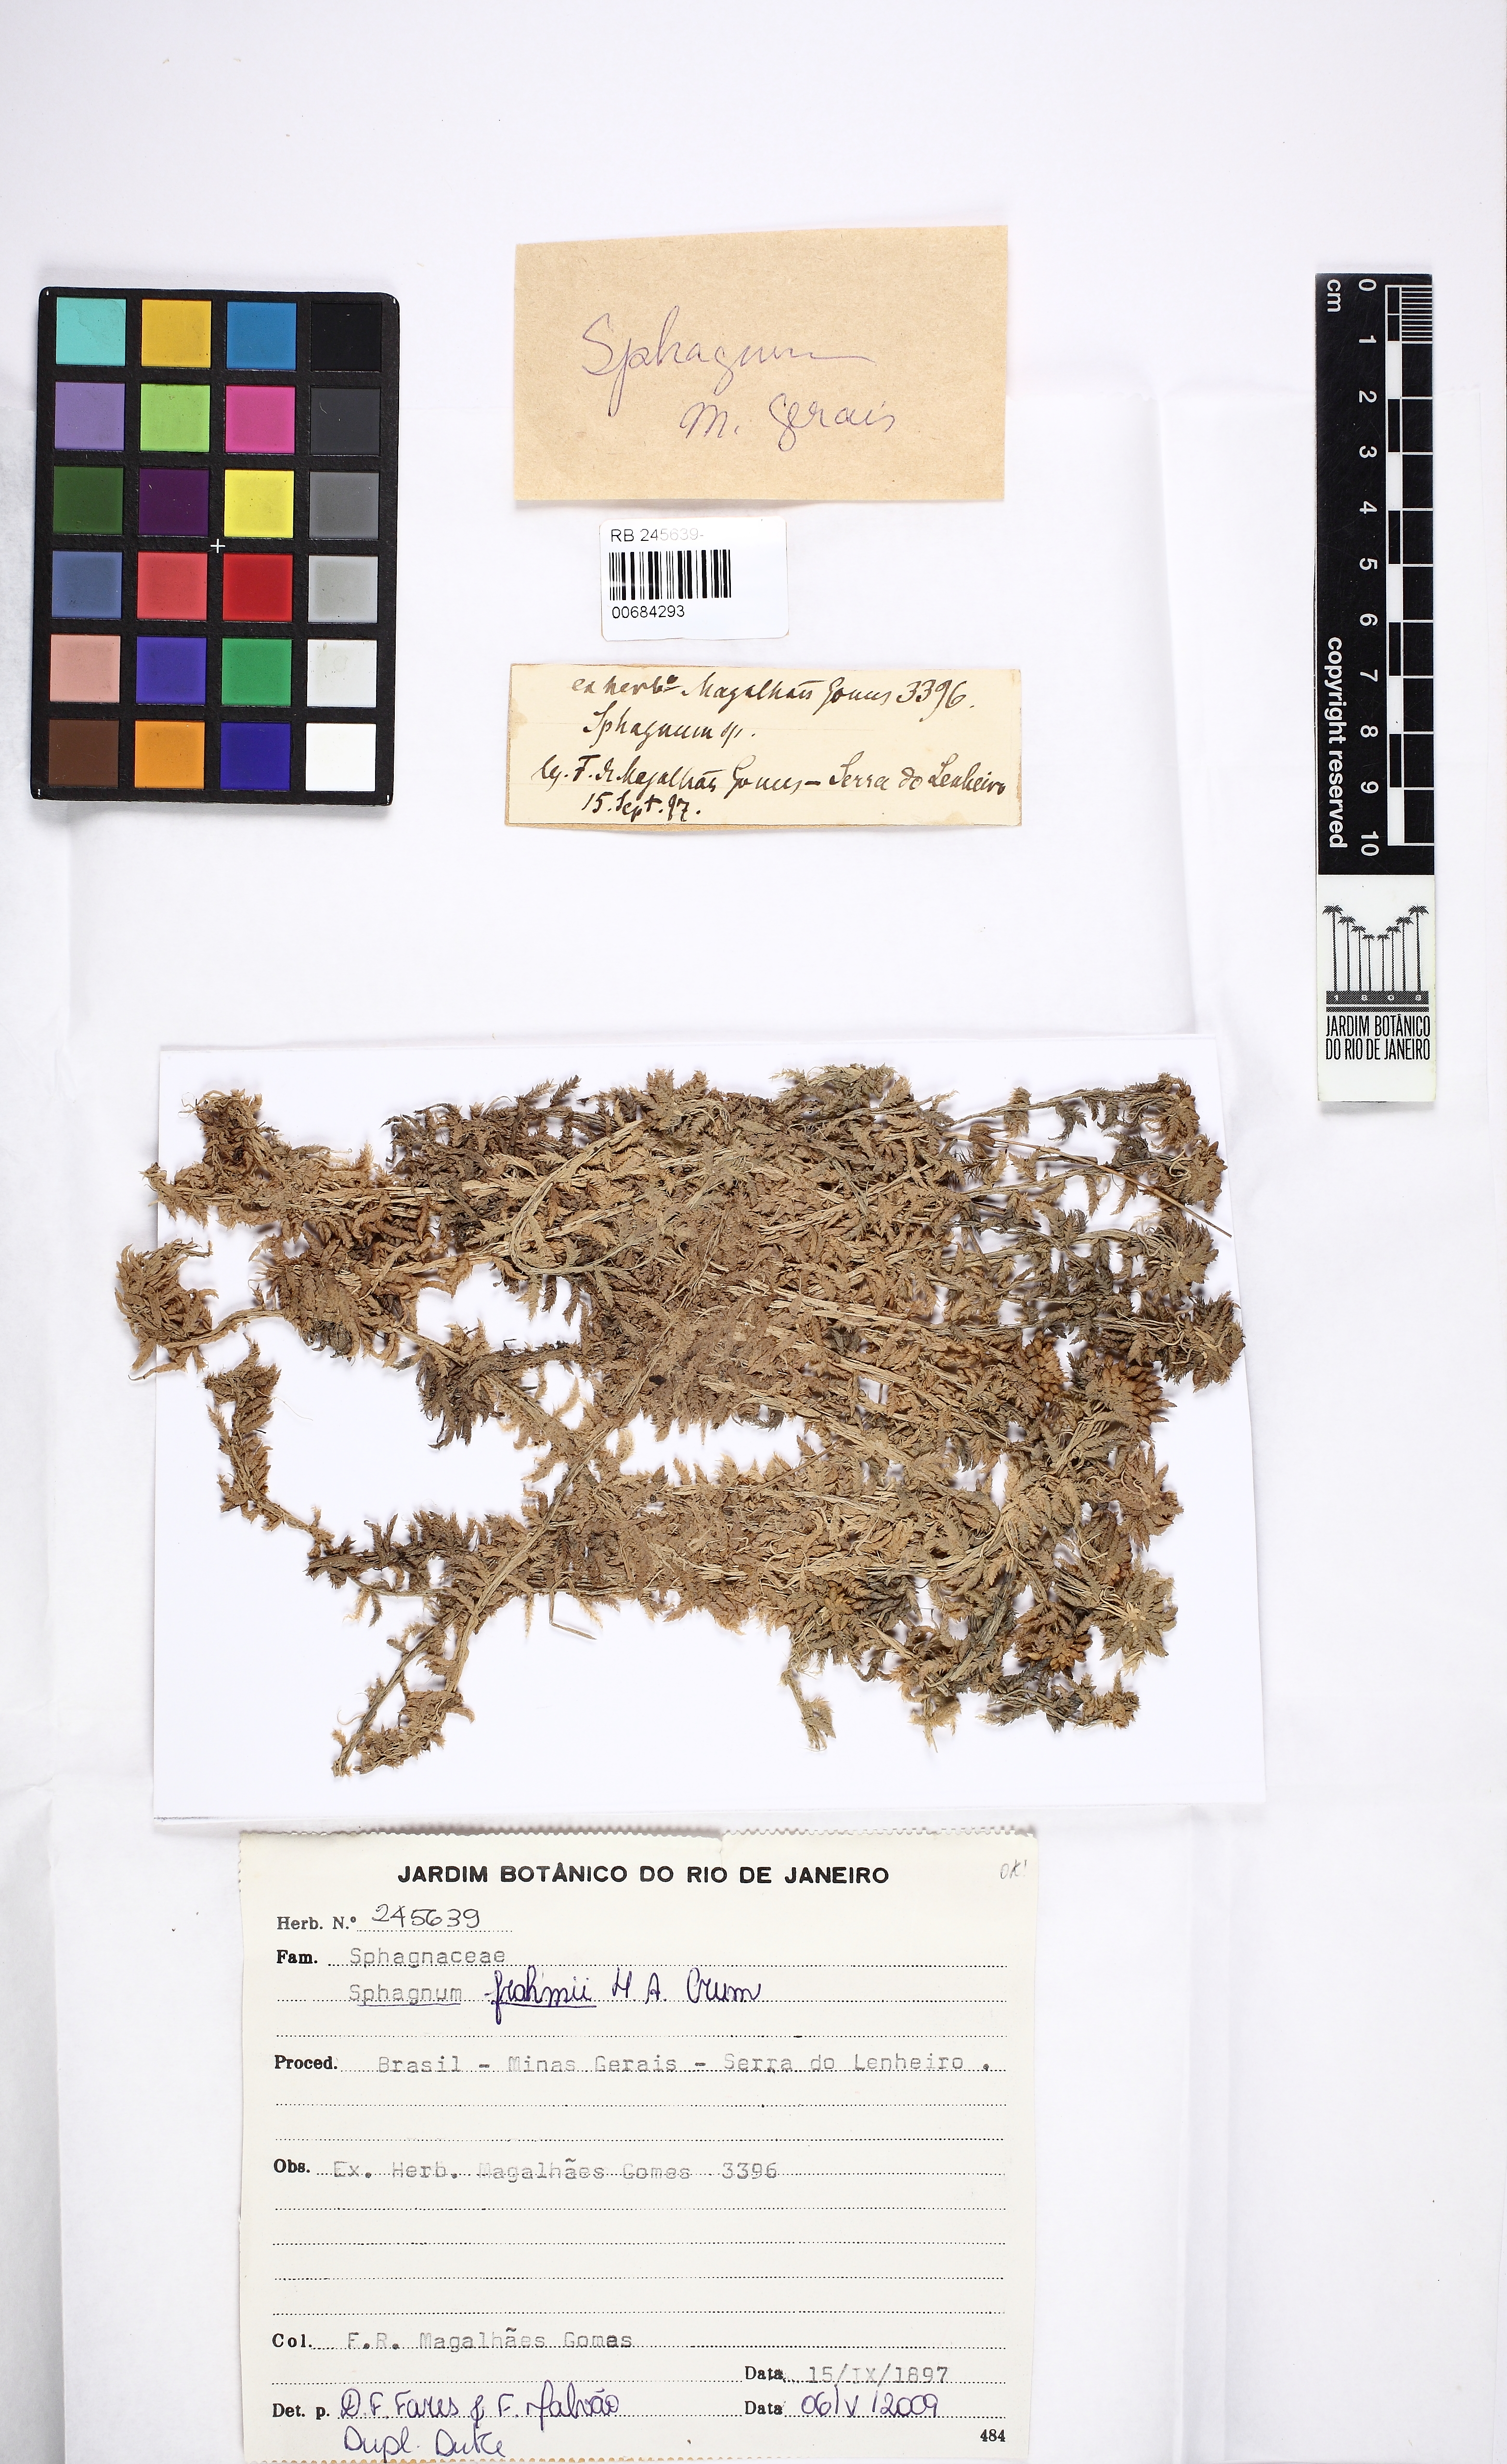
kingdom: Plantae
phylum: Bryophyta
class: Sphagnopsida
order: Sphagnales
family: Sphagnaceae
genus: Sphagnum
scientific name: Sphagnum frahmii
